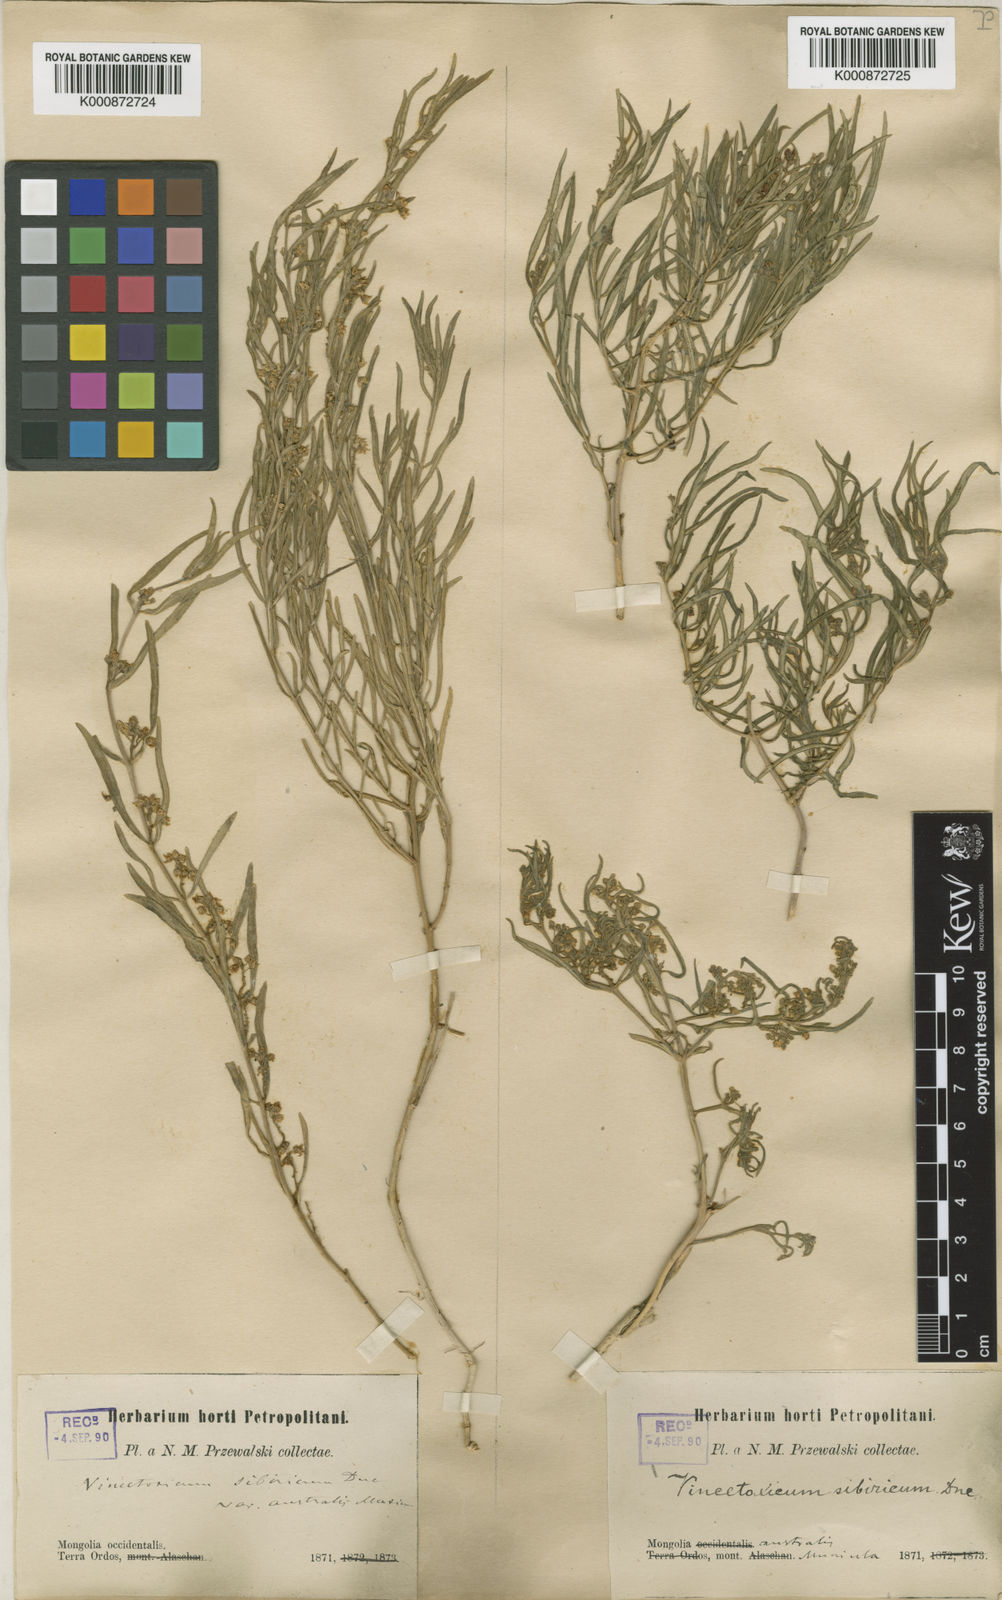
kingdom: Plantae
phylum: Tracheophyta
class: Magnoliopsida
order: Gentianales
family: Apocynaceae
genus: Cynanchum
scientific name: Cynanchum thesioides
